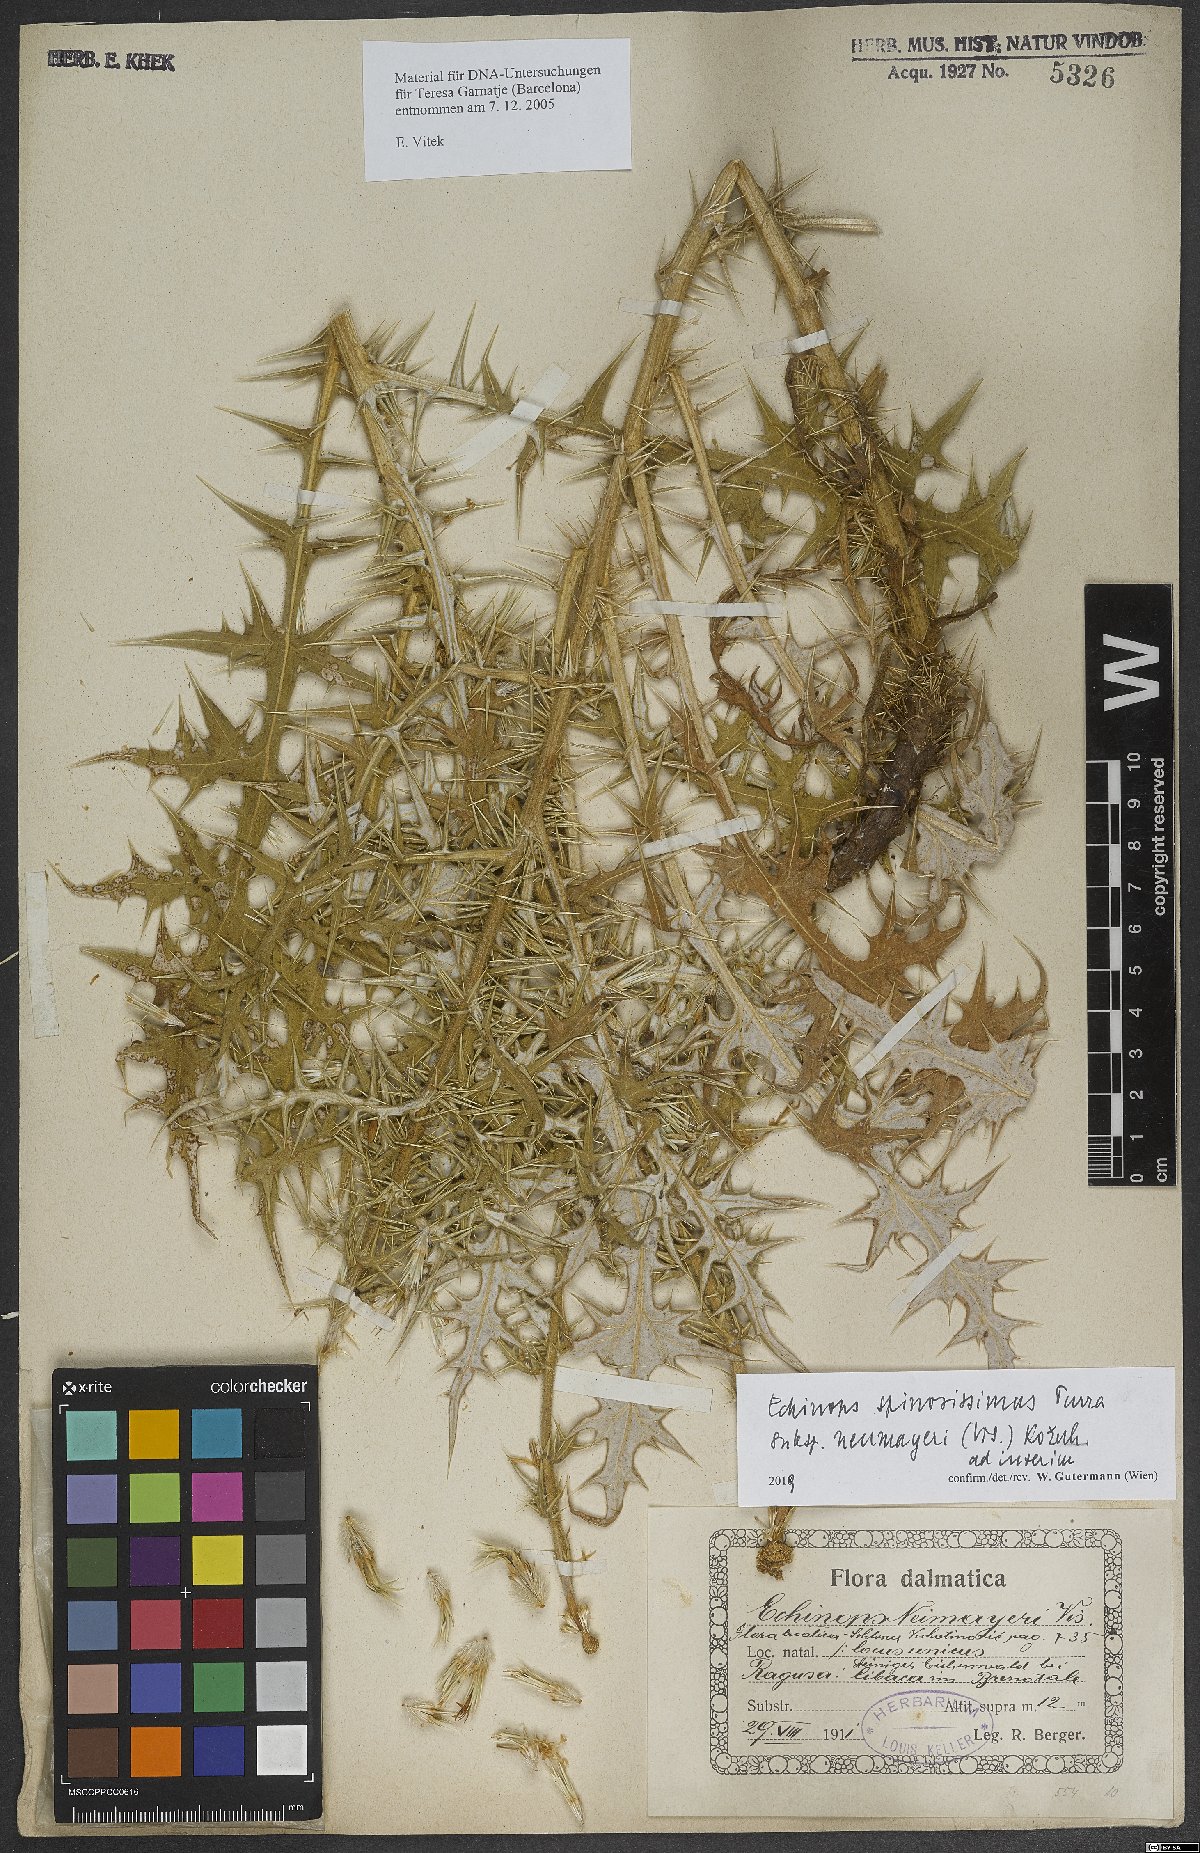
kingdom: Plantae
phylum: Tracheophyta
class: Magnoliopsida
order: Asterales
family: Asteraceae
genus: Echinops
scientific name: Echinops spinosissimus
